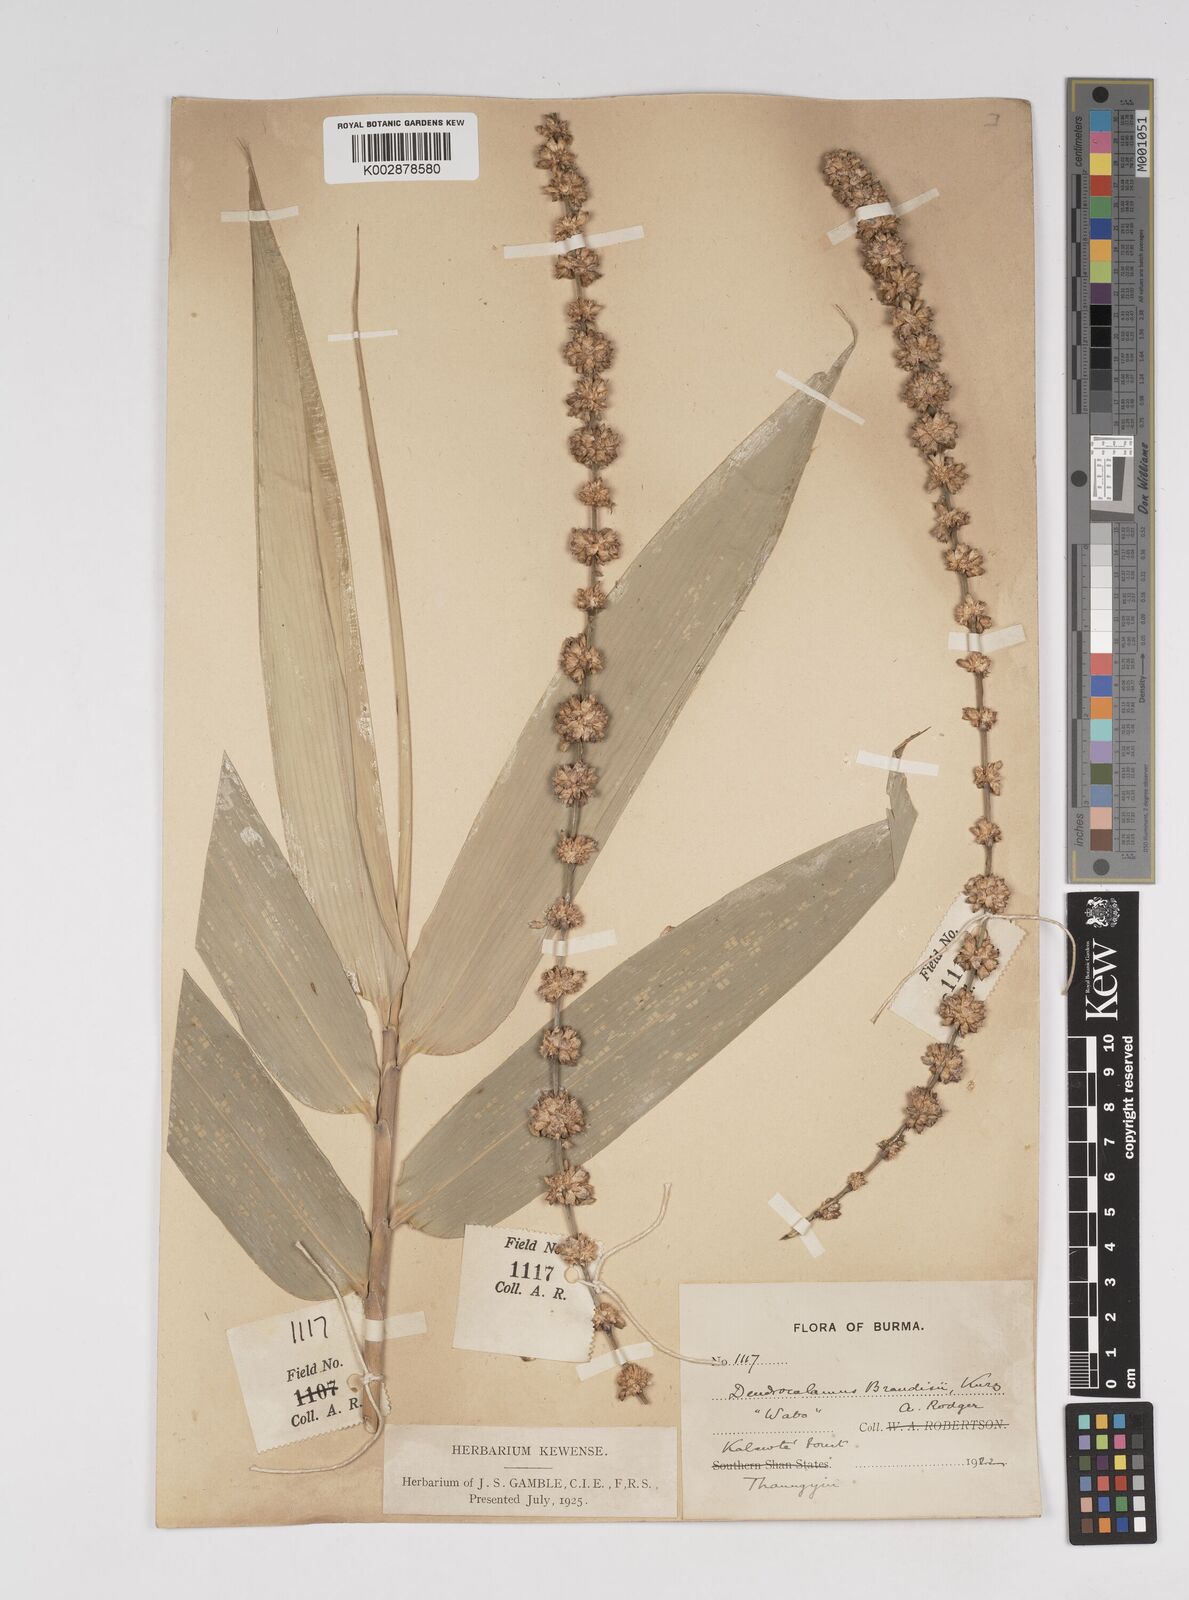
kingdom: Plantae
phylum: Tracheophyta
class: Liliopsida
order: Poales
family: Poaceae
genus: Dendrocalamus
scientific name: Dendrocalamus brandisii
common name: Velvetleaf bamboo
